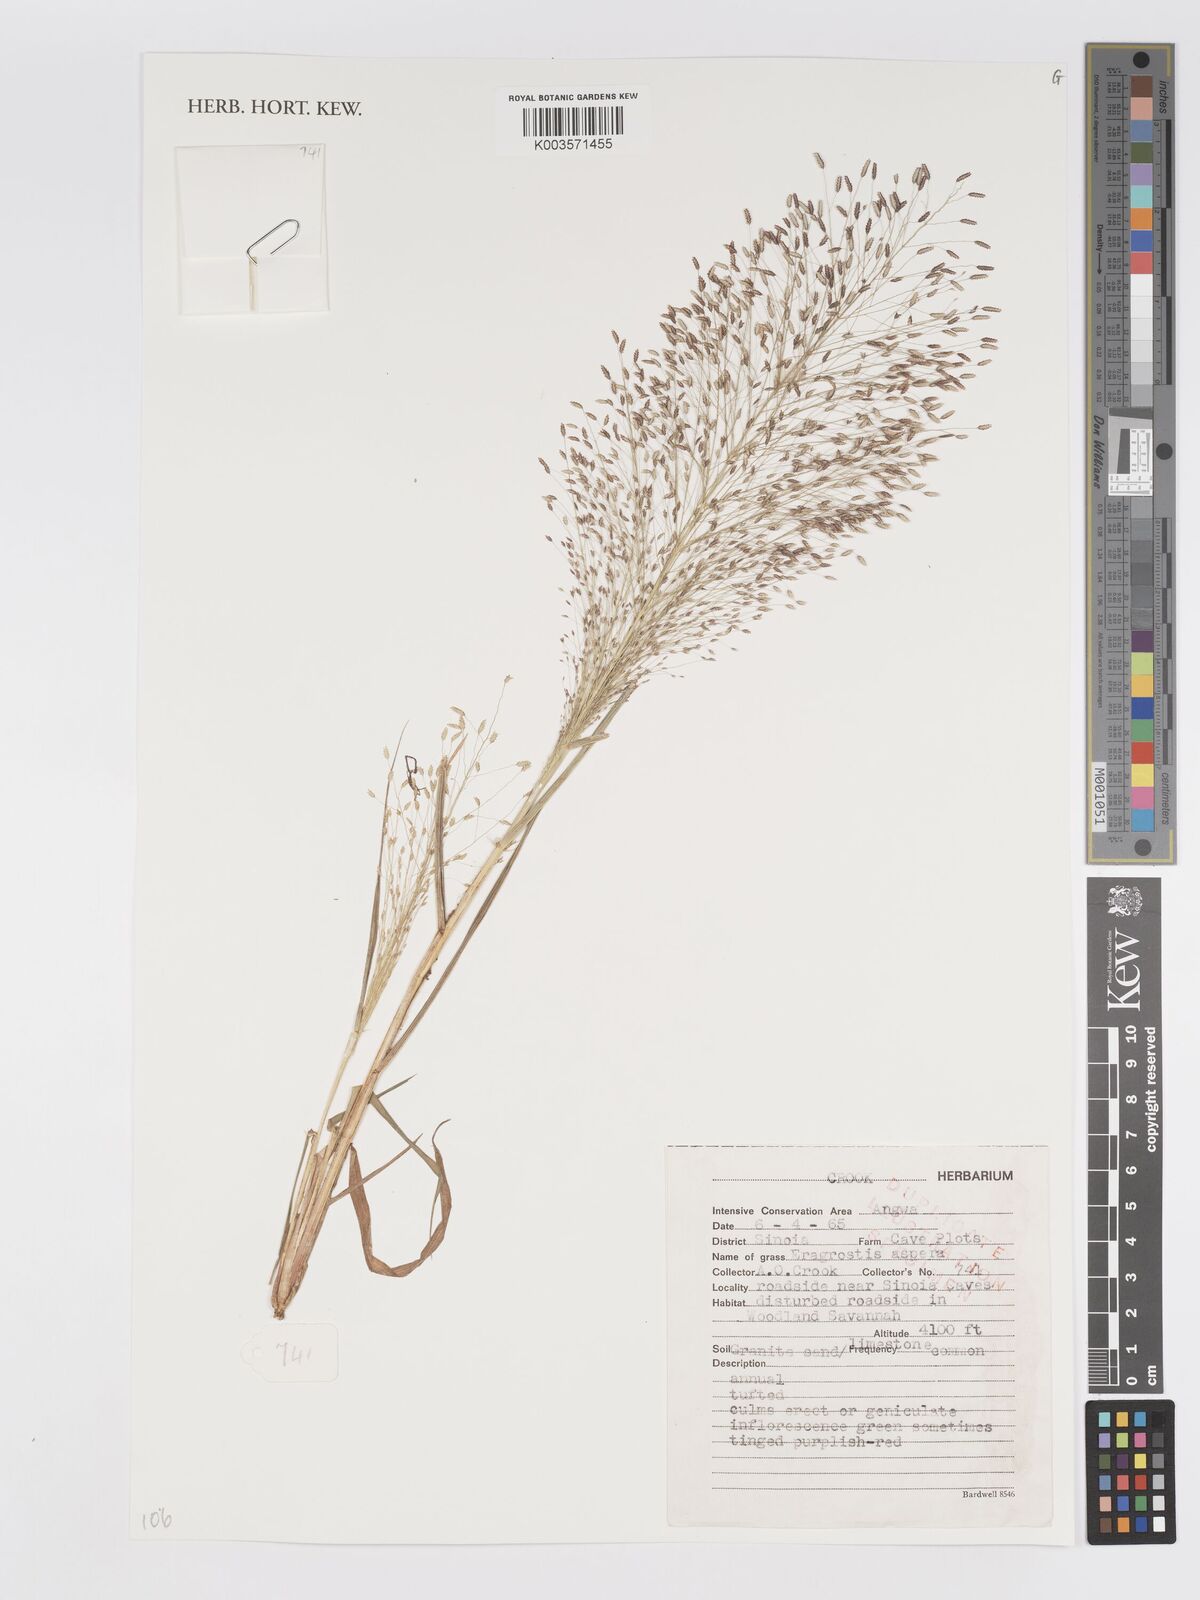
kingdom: Plantae
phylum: Tracheophyta
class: Liliopsida
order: Poales
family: Poaceae
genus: Eragrostis
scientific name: Eragrostis aspera
